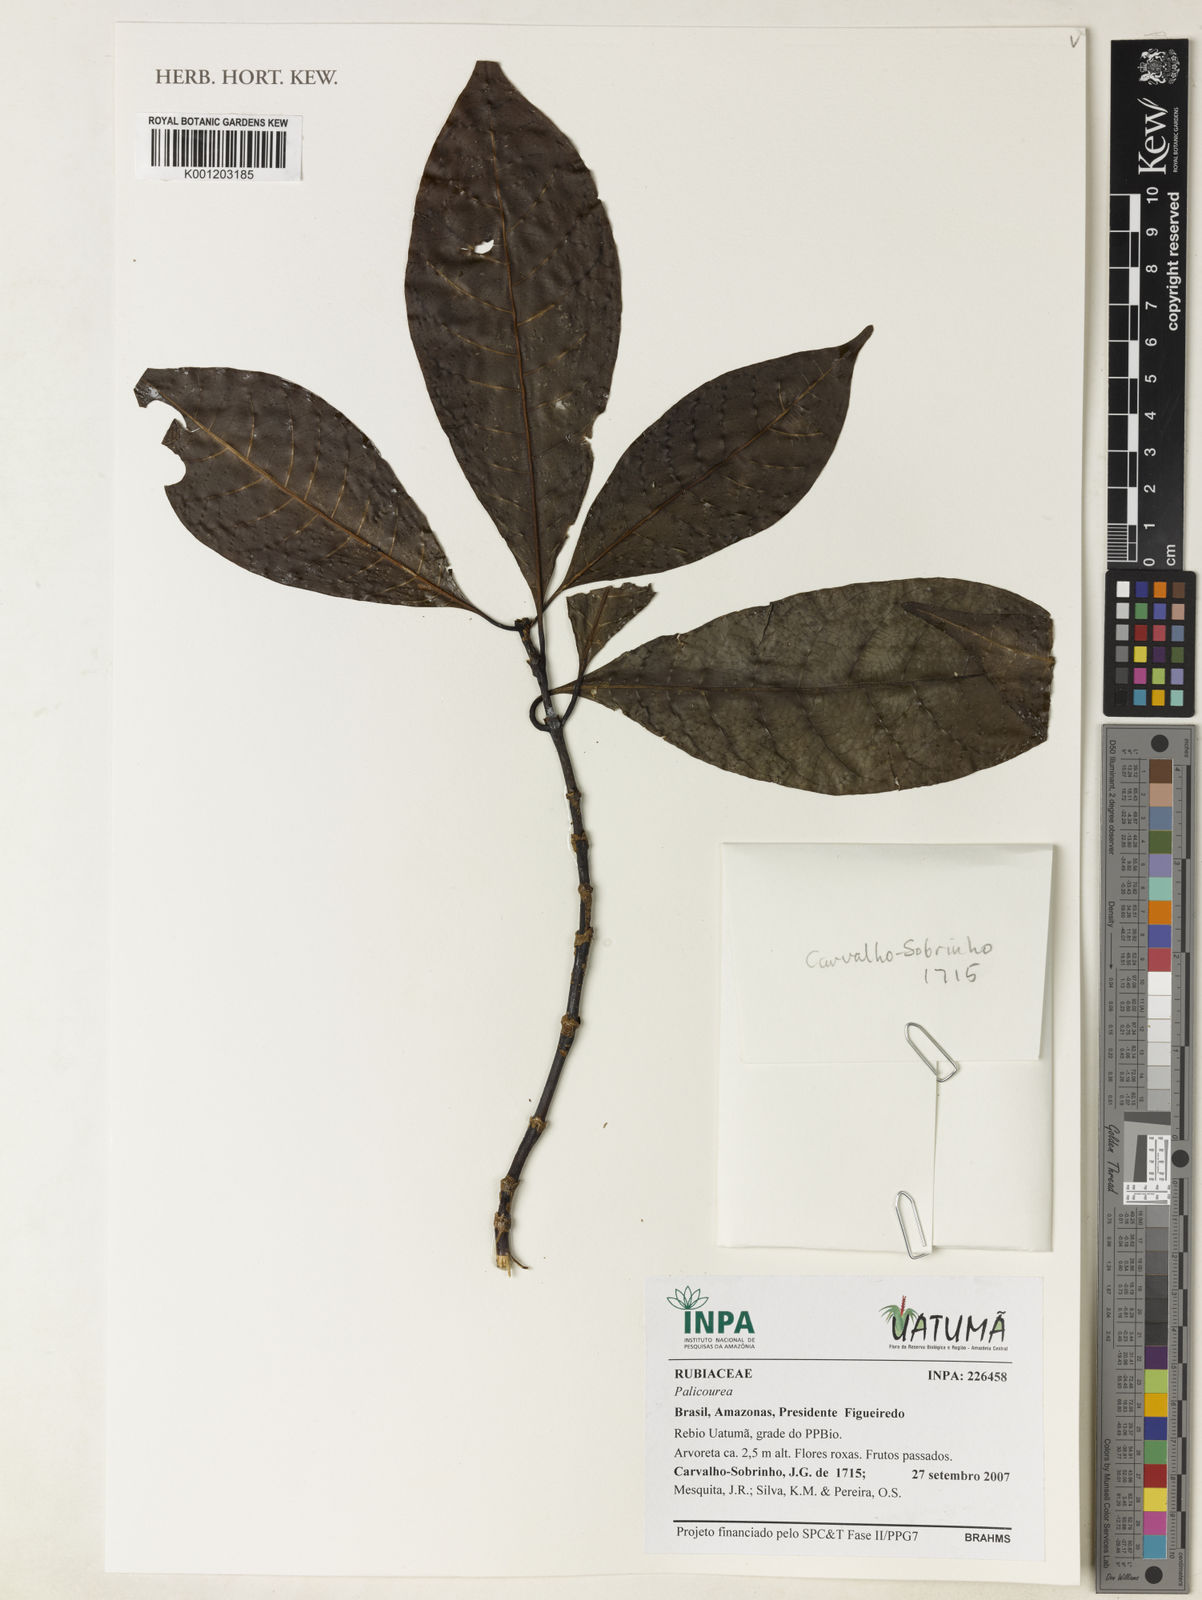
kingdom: Plantae
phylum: Tracheophyta
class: Magnoliopsida
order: Gentianales
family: Rubiaceae
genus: Palicourea
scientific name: Palicourea
